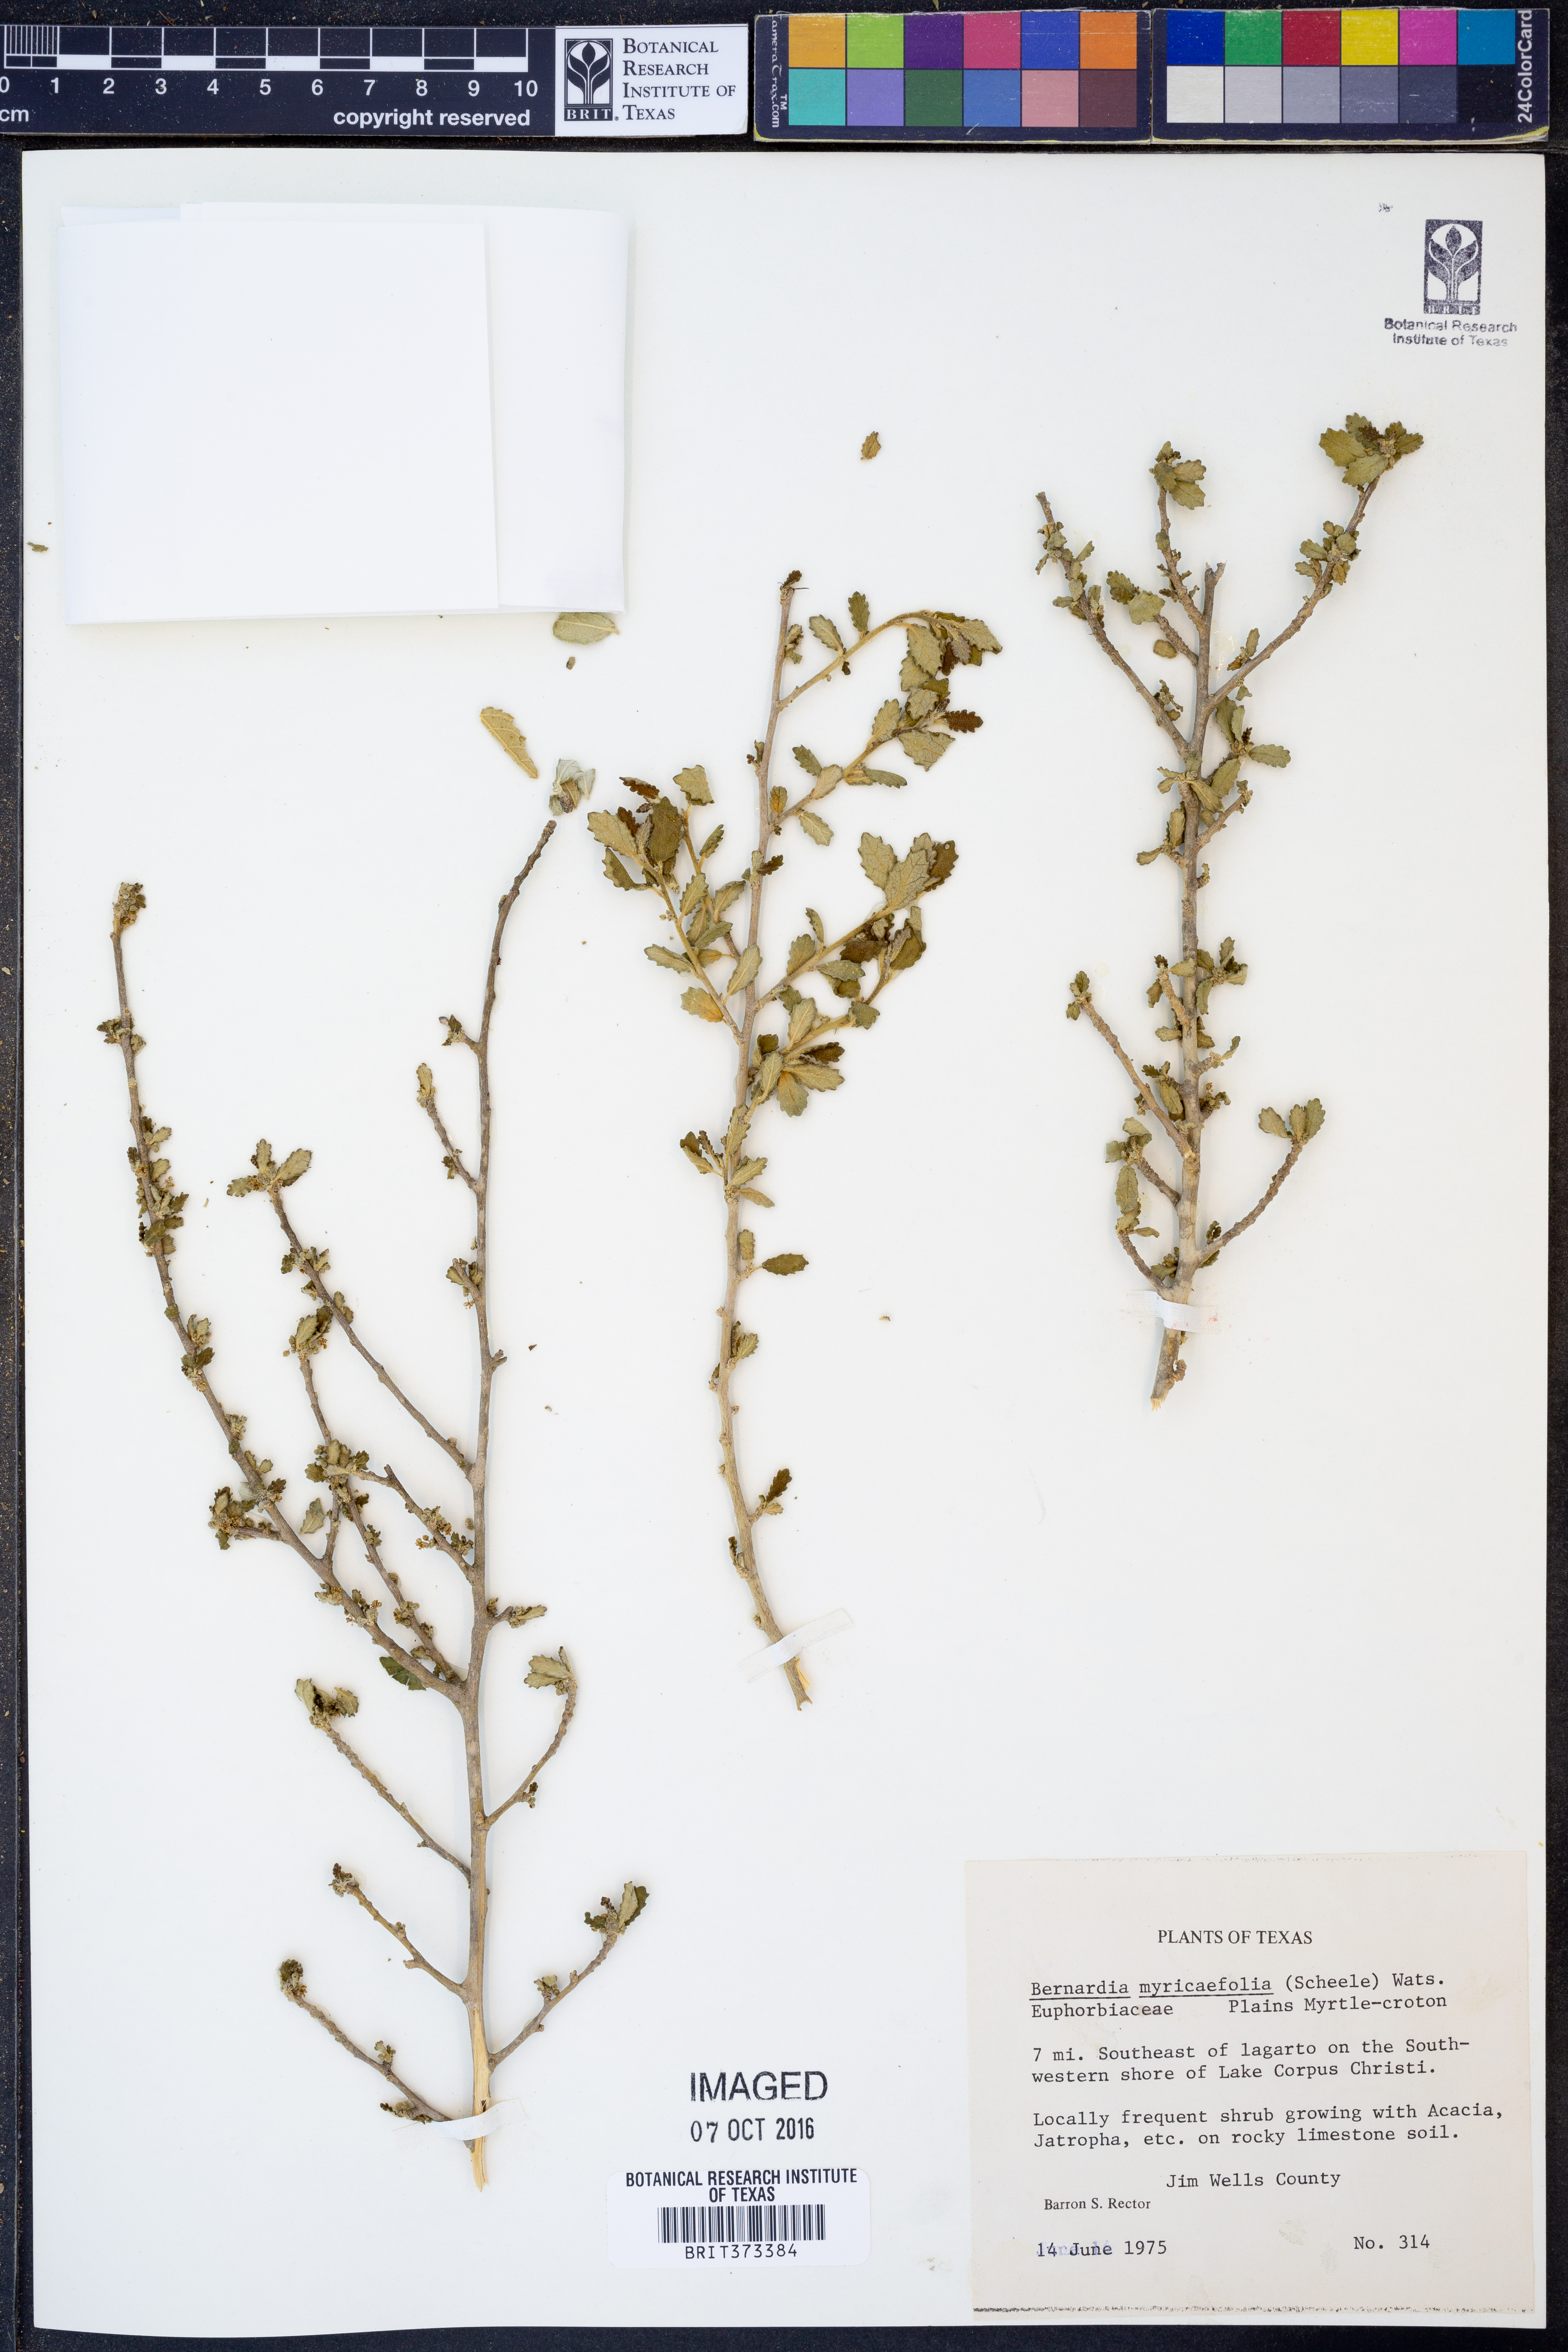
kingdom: Plantae
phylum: Tracheophyta
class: Magnoliopsida
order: Malpighiales
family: Euphorbiaceae
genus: Bernardia
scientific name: Bernardia myricifolia
